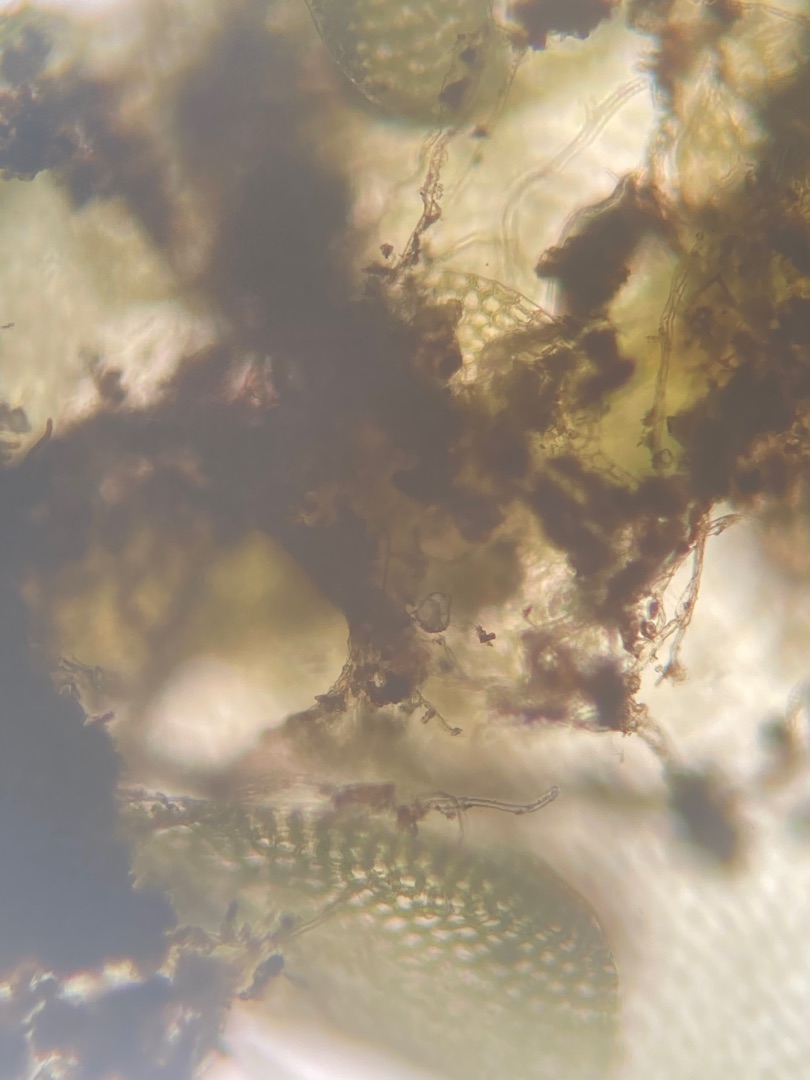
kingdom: Plantae
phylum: Marchantiophyta
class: Jungermanniopsida
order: Jungermanniales
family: Calypogeiaceae
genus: Calypogeia
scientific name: Calypogeia muelleriana
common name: Almindelig sækmos
